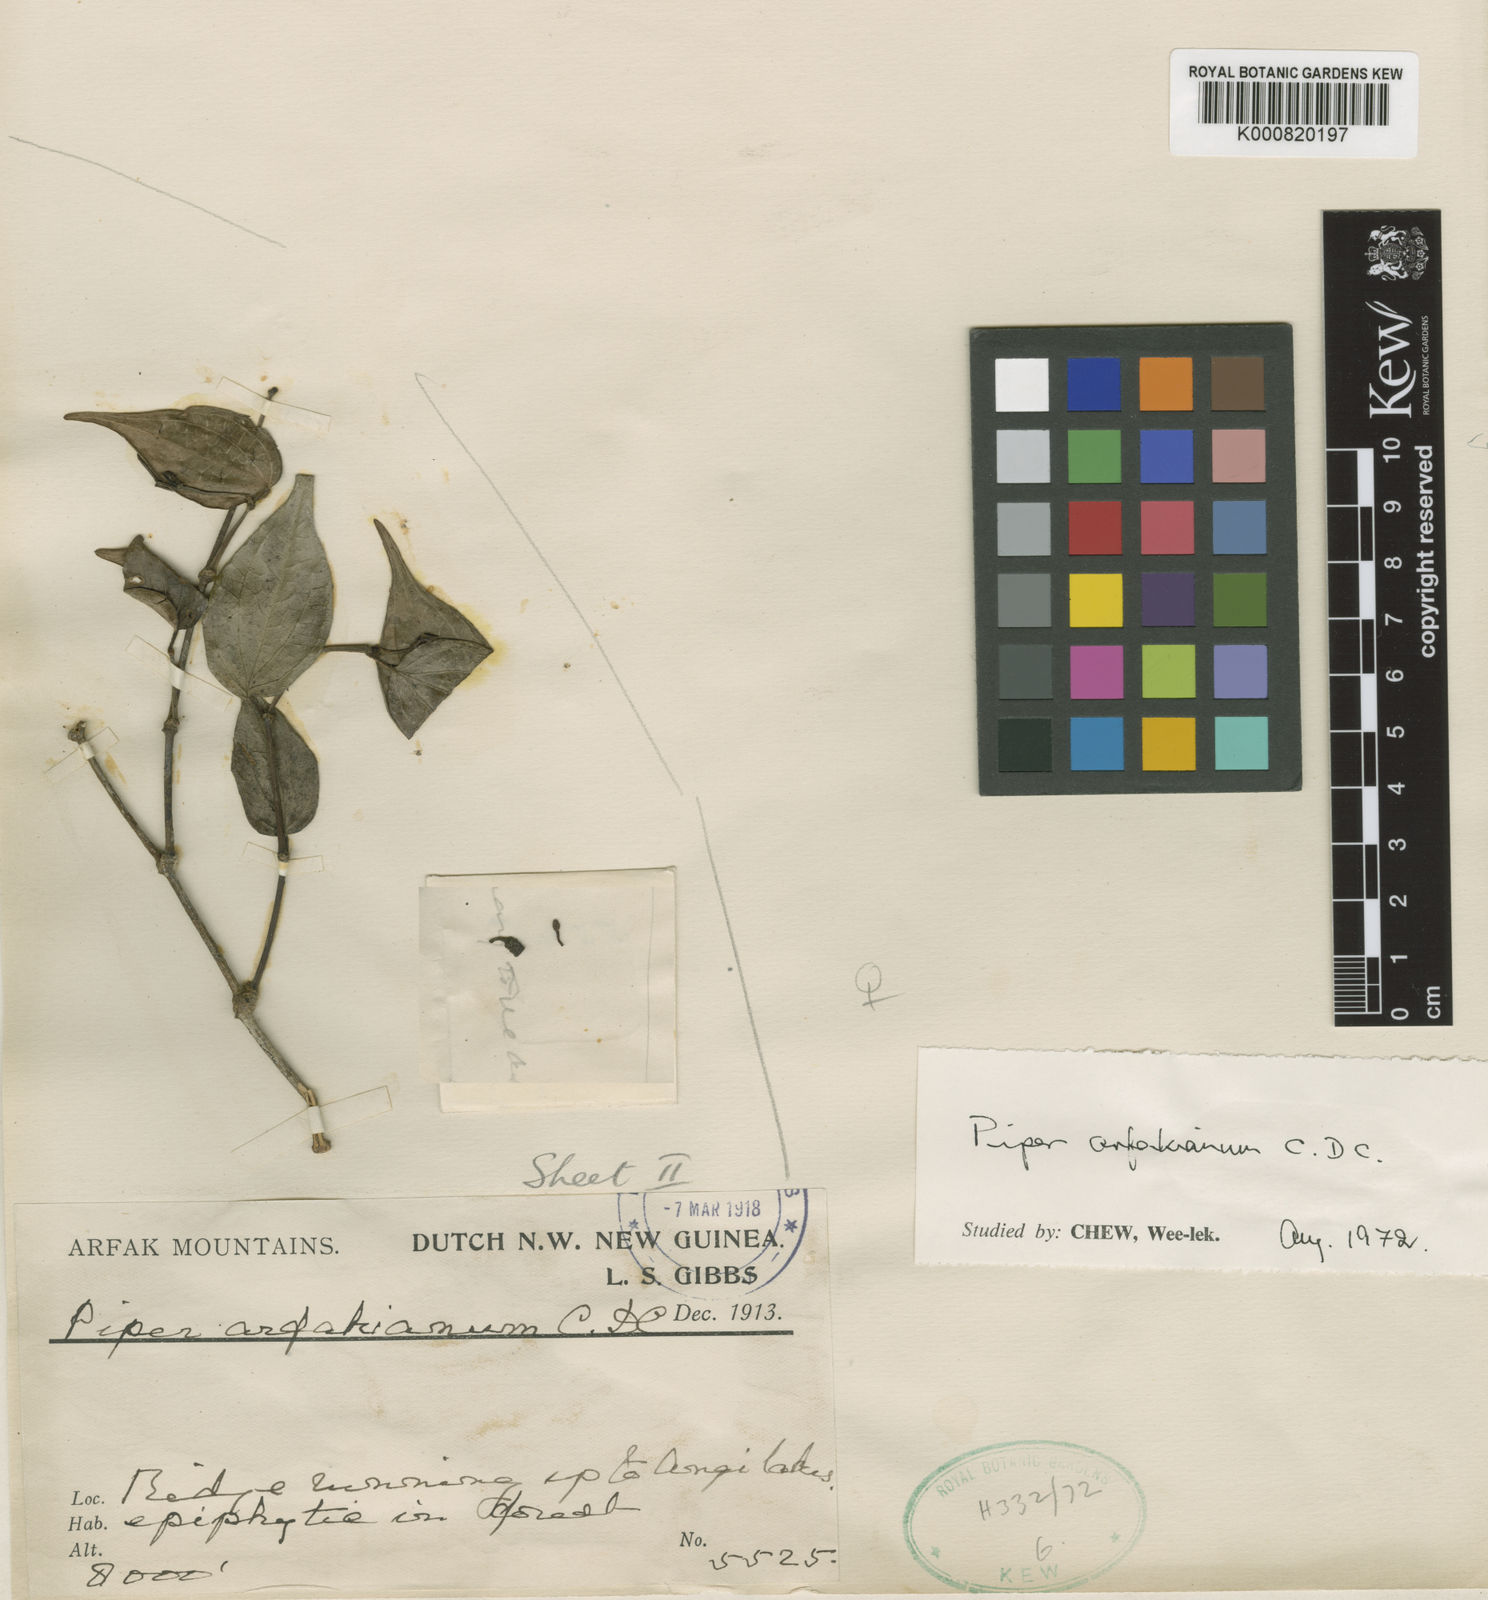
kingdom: Plantae
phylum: Tracheophyta
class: Magnoliopsida
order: Piperales
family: Piperaceae
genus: Piper
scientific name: Piper arfakianum
